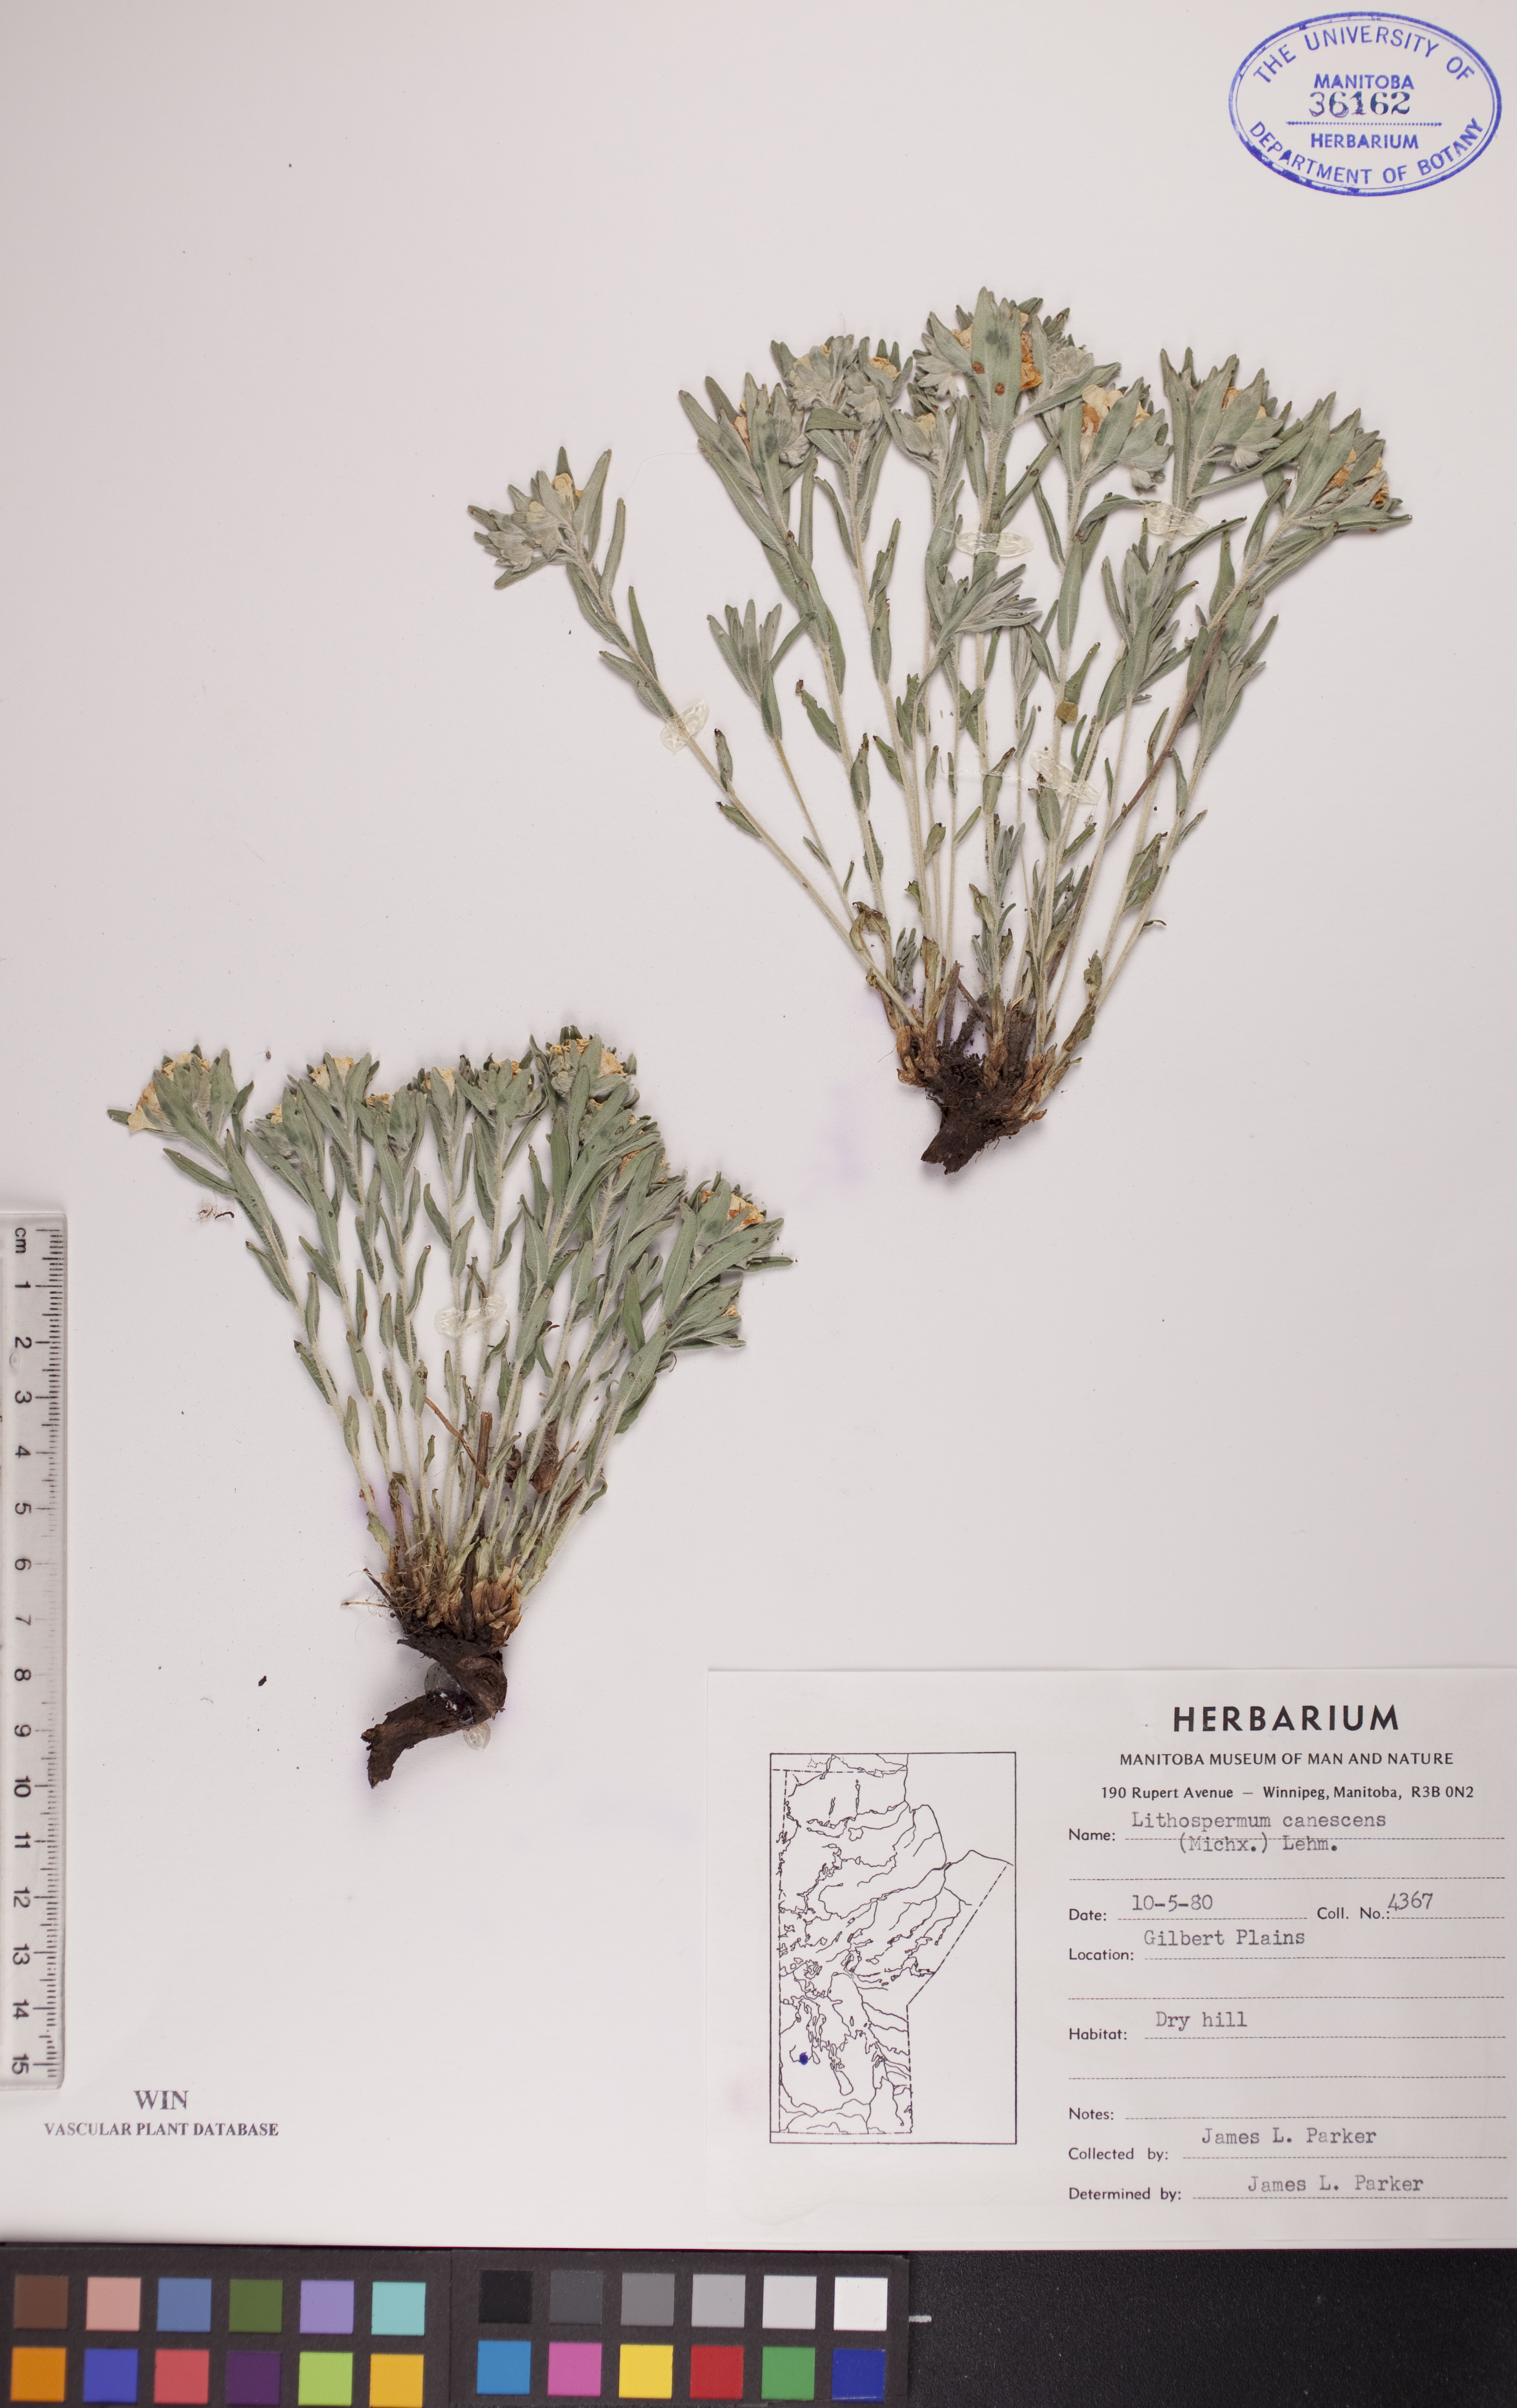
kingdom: Plantae
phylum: Tracheophyta
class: Magnoliopsida
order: Boraginales
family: Boraginaceae
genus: Lithospermum
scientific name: Lithospermum canescens
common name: Hoary puccoon
